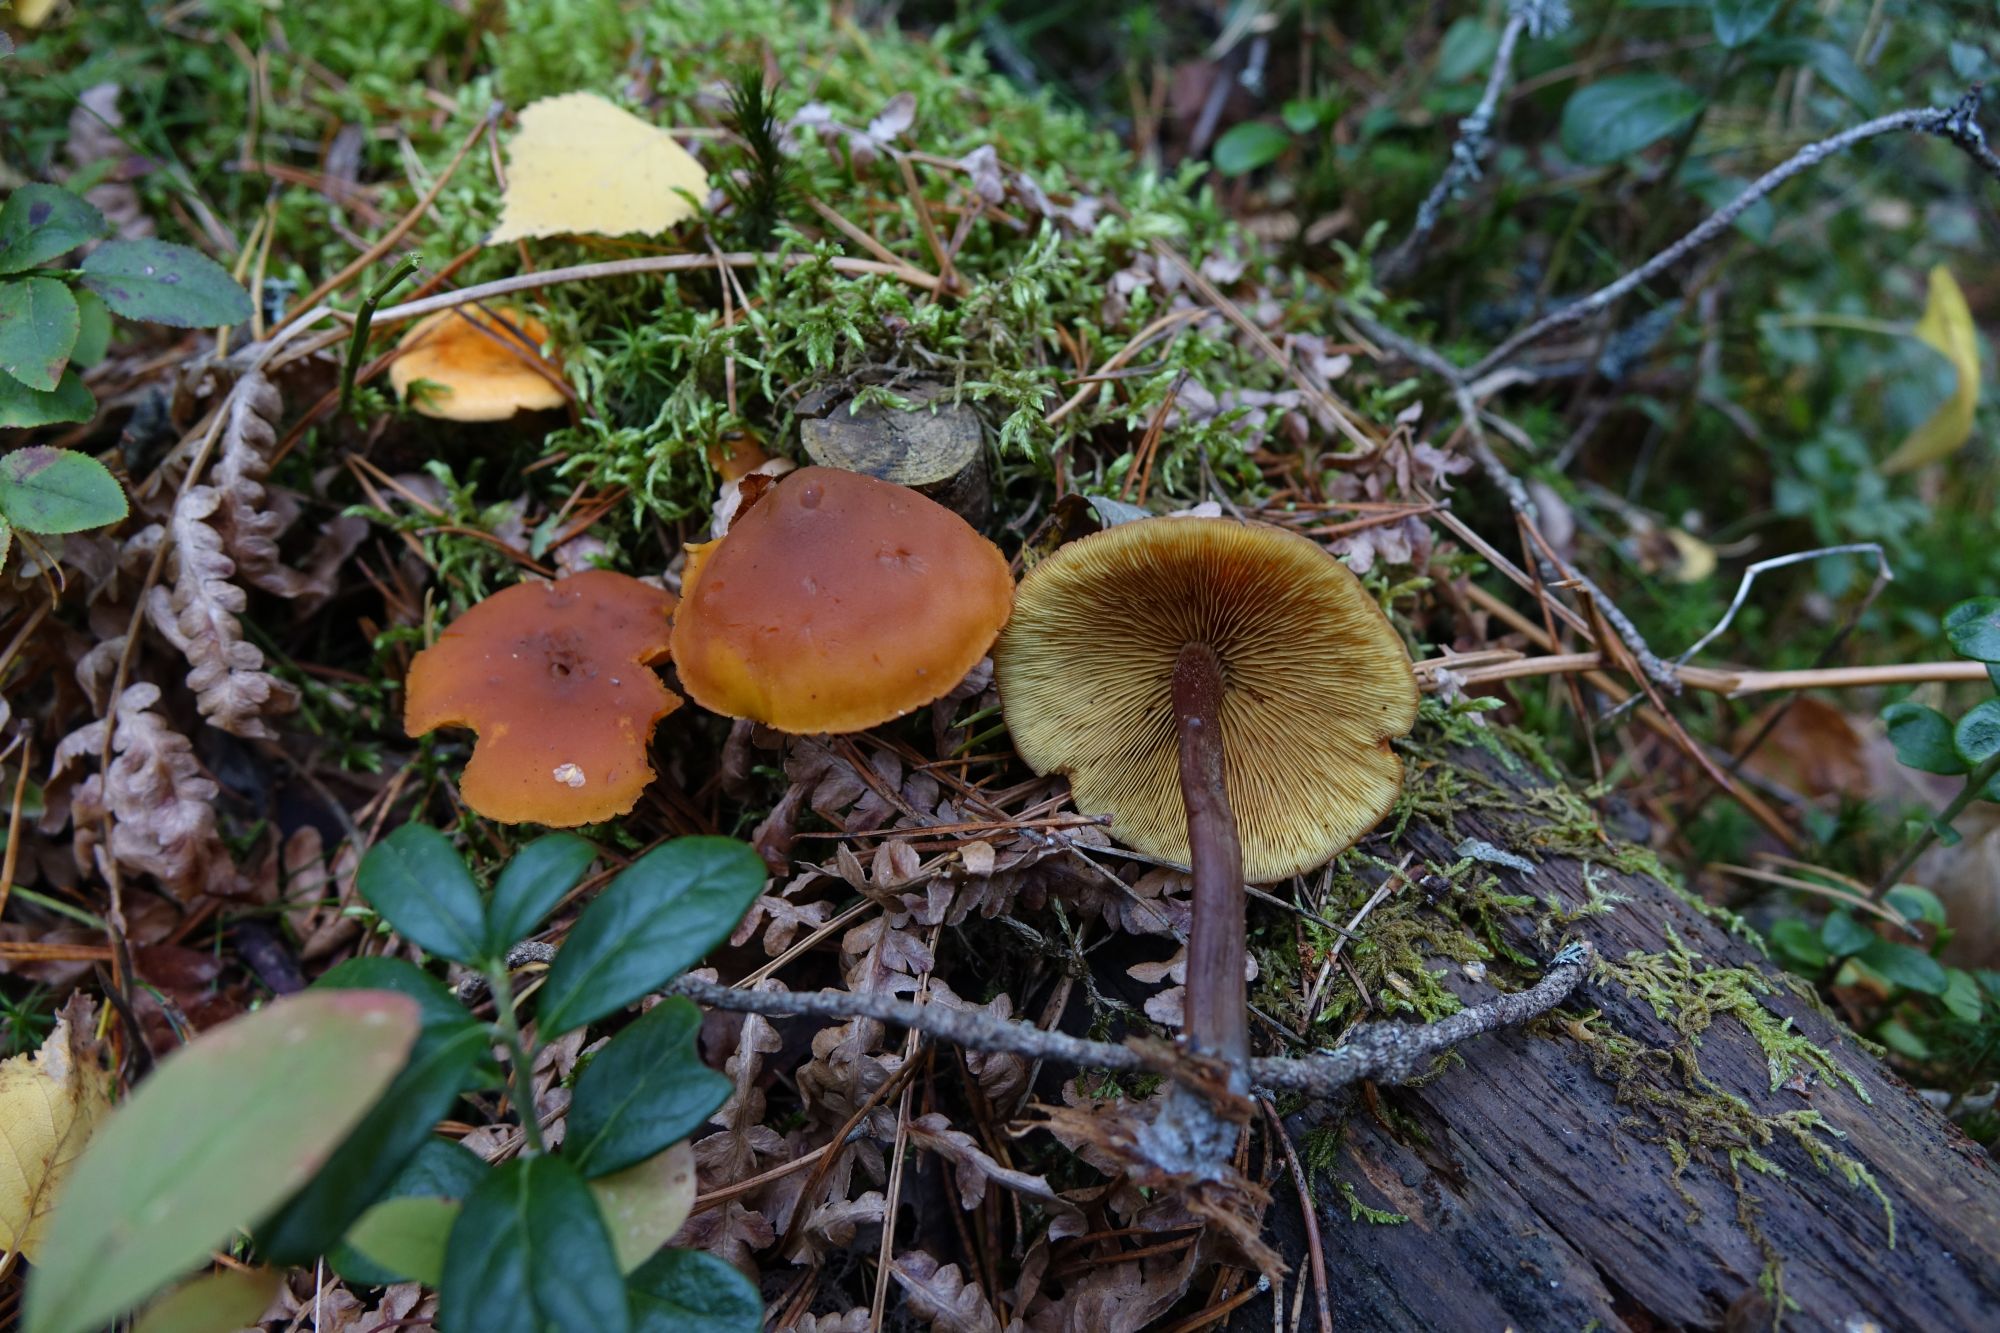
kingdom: Fungi
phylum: Basidiomycota
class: Agaricomycetes
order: Agaricales
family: Hymenogastraceae
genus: Gymnopilus
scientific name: Gymnopilus picreus
